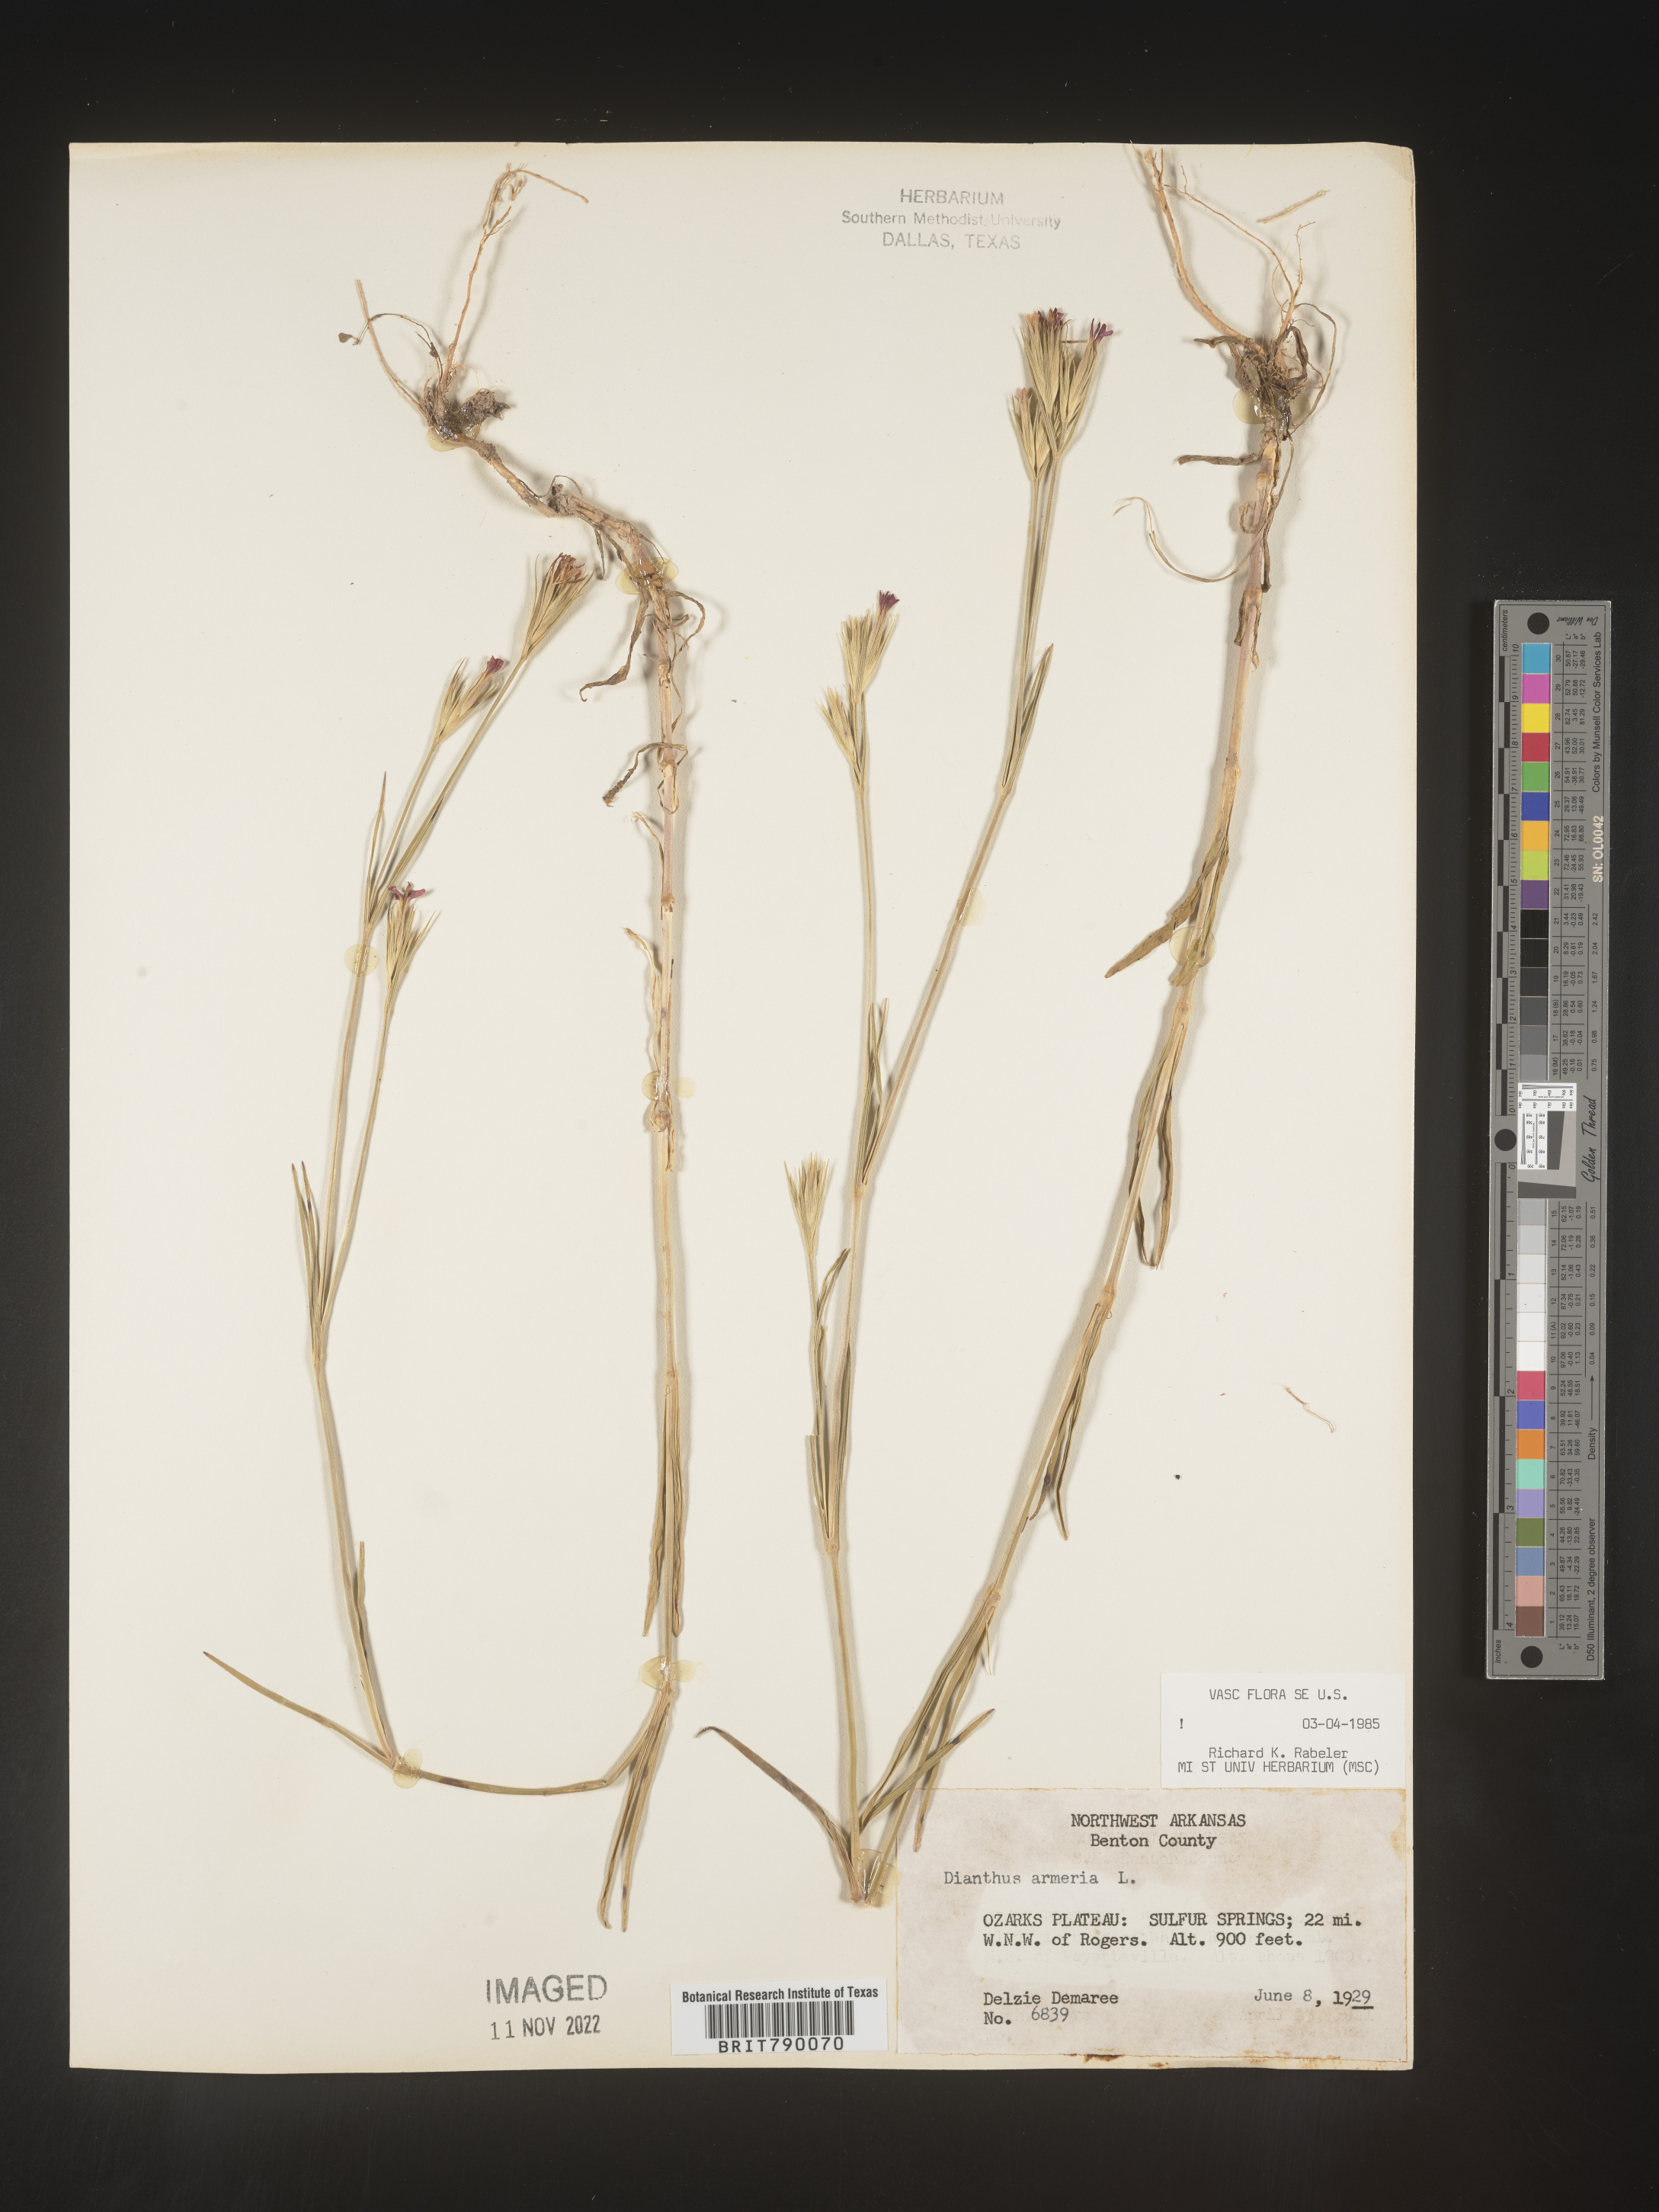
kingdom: Plantae
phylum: Tracheophyta
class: Magnoliopsida
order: Caryophyllales
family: Caryophyllaceae
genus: Dianthus
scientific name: Dianthus armeria
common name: Deptford pink
